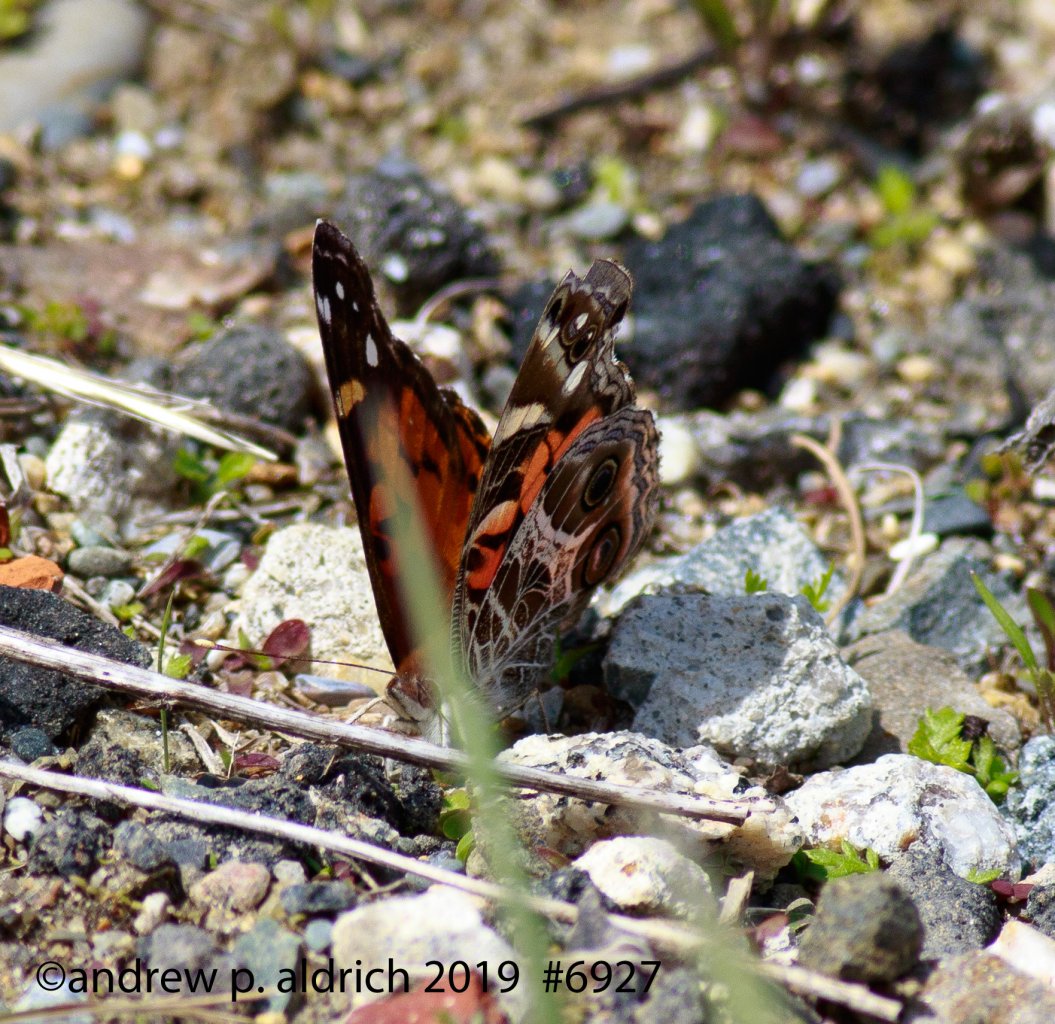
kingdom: Animalia
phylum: Arthropoda
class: Insecta
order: Lepidoptera
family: Nymphalidae
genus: Vanessa
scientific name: Vanessa virginiensis
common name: American Lady
